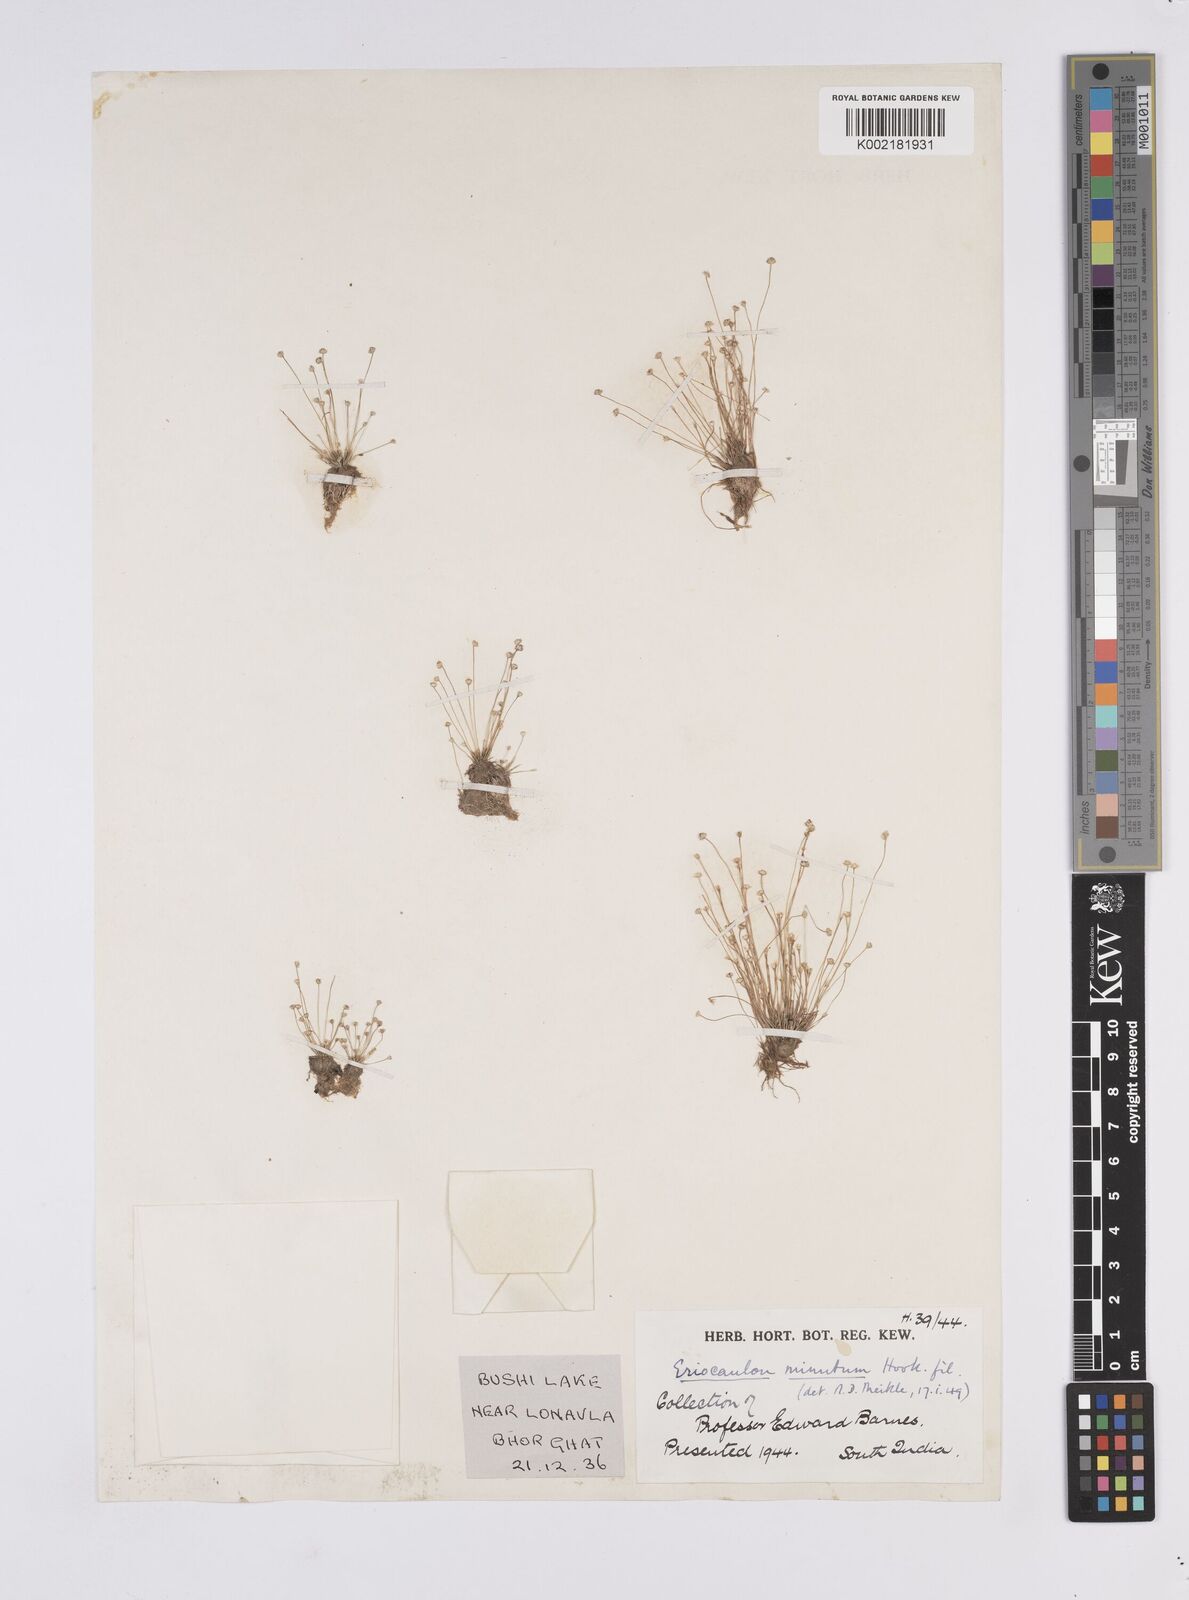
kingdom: Plantae
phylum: Tracheophyta
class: Liliopsida
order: Poales
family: Eriocaulaceae
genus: Eriocaulon
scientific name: Eriocaulon minutum
